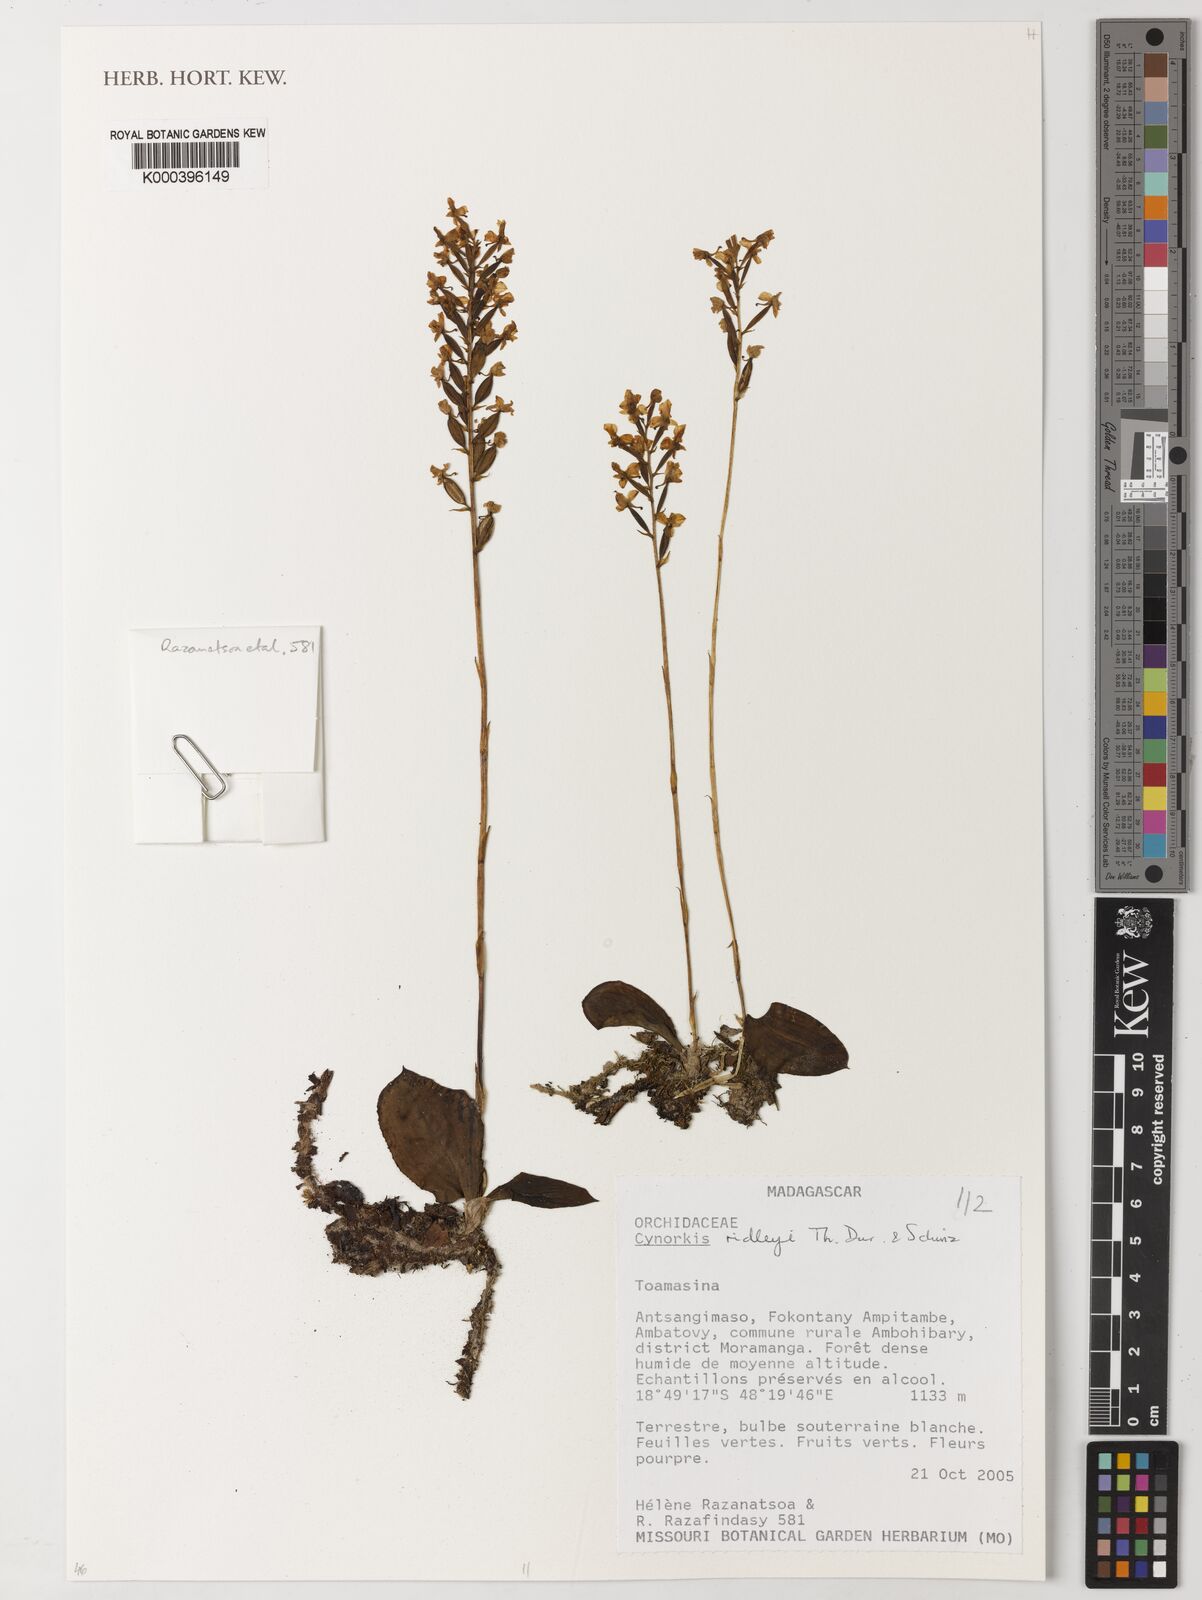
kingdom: Plantae
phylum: Tracheophyta
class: Liliopsida
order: Asparagales
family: Orchidaceae
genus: Cynorkis
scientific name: Cynorkis ridleyi
